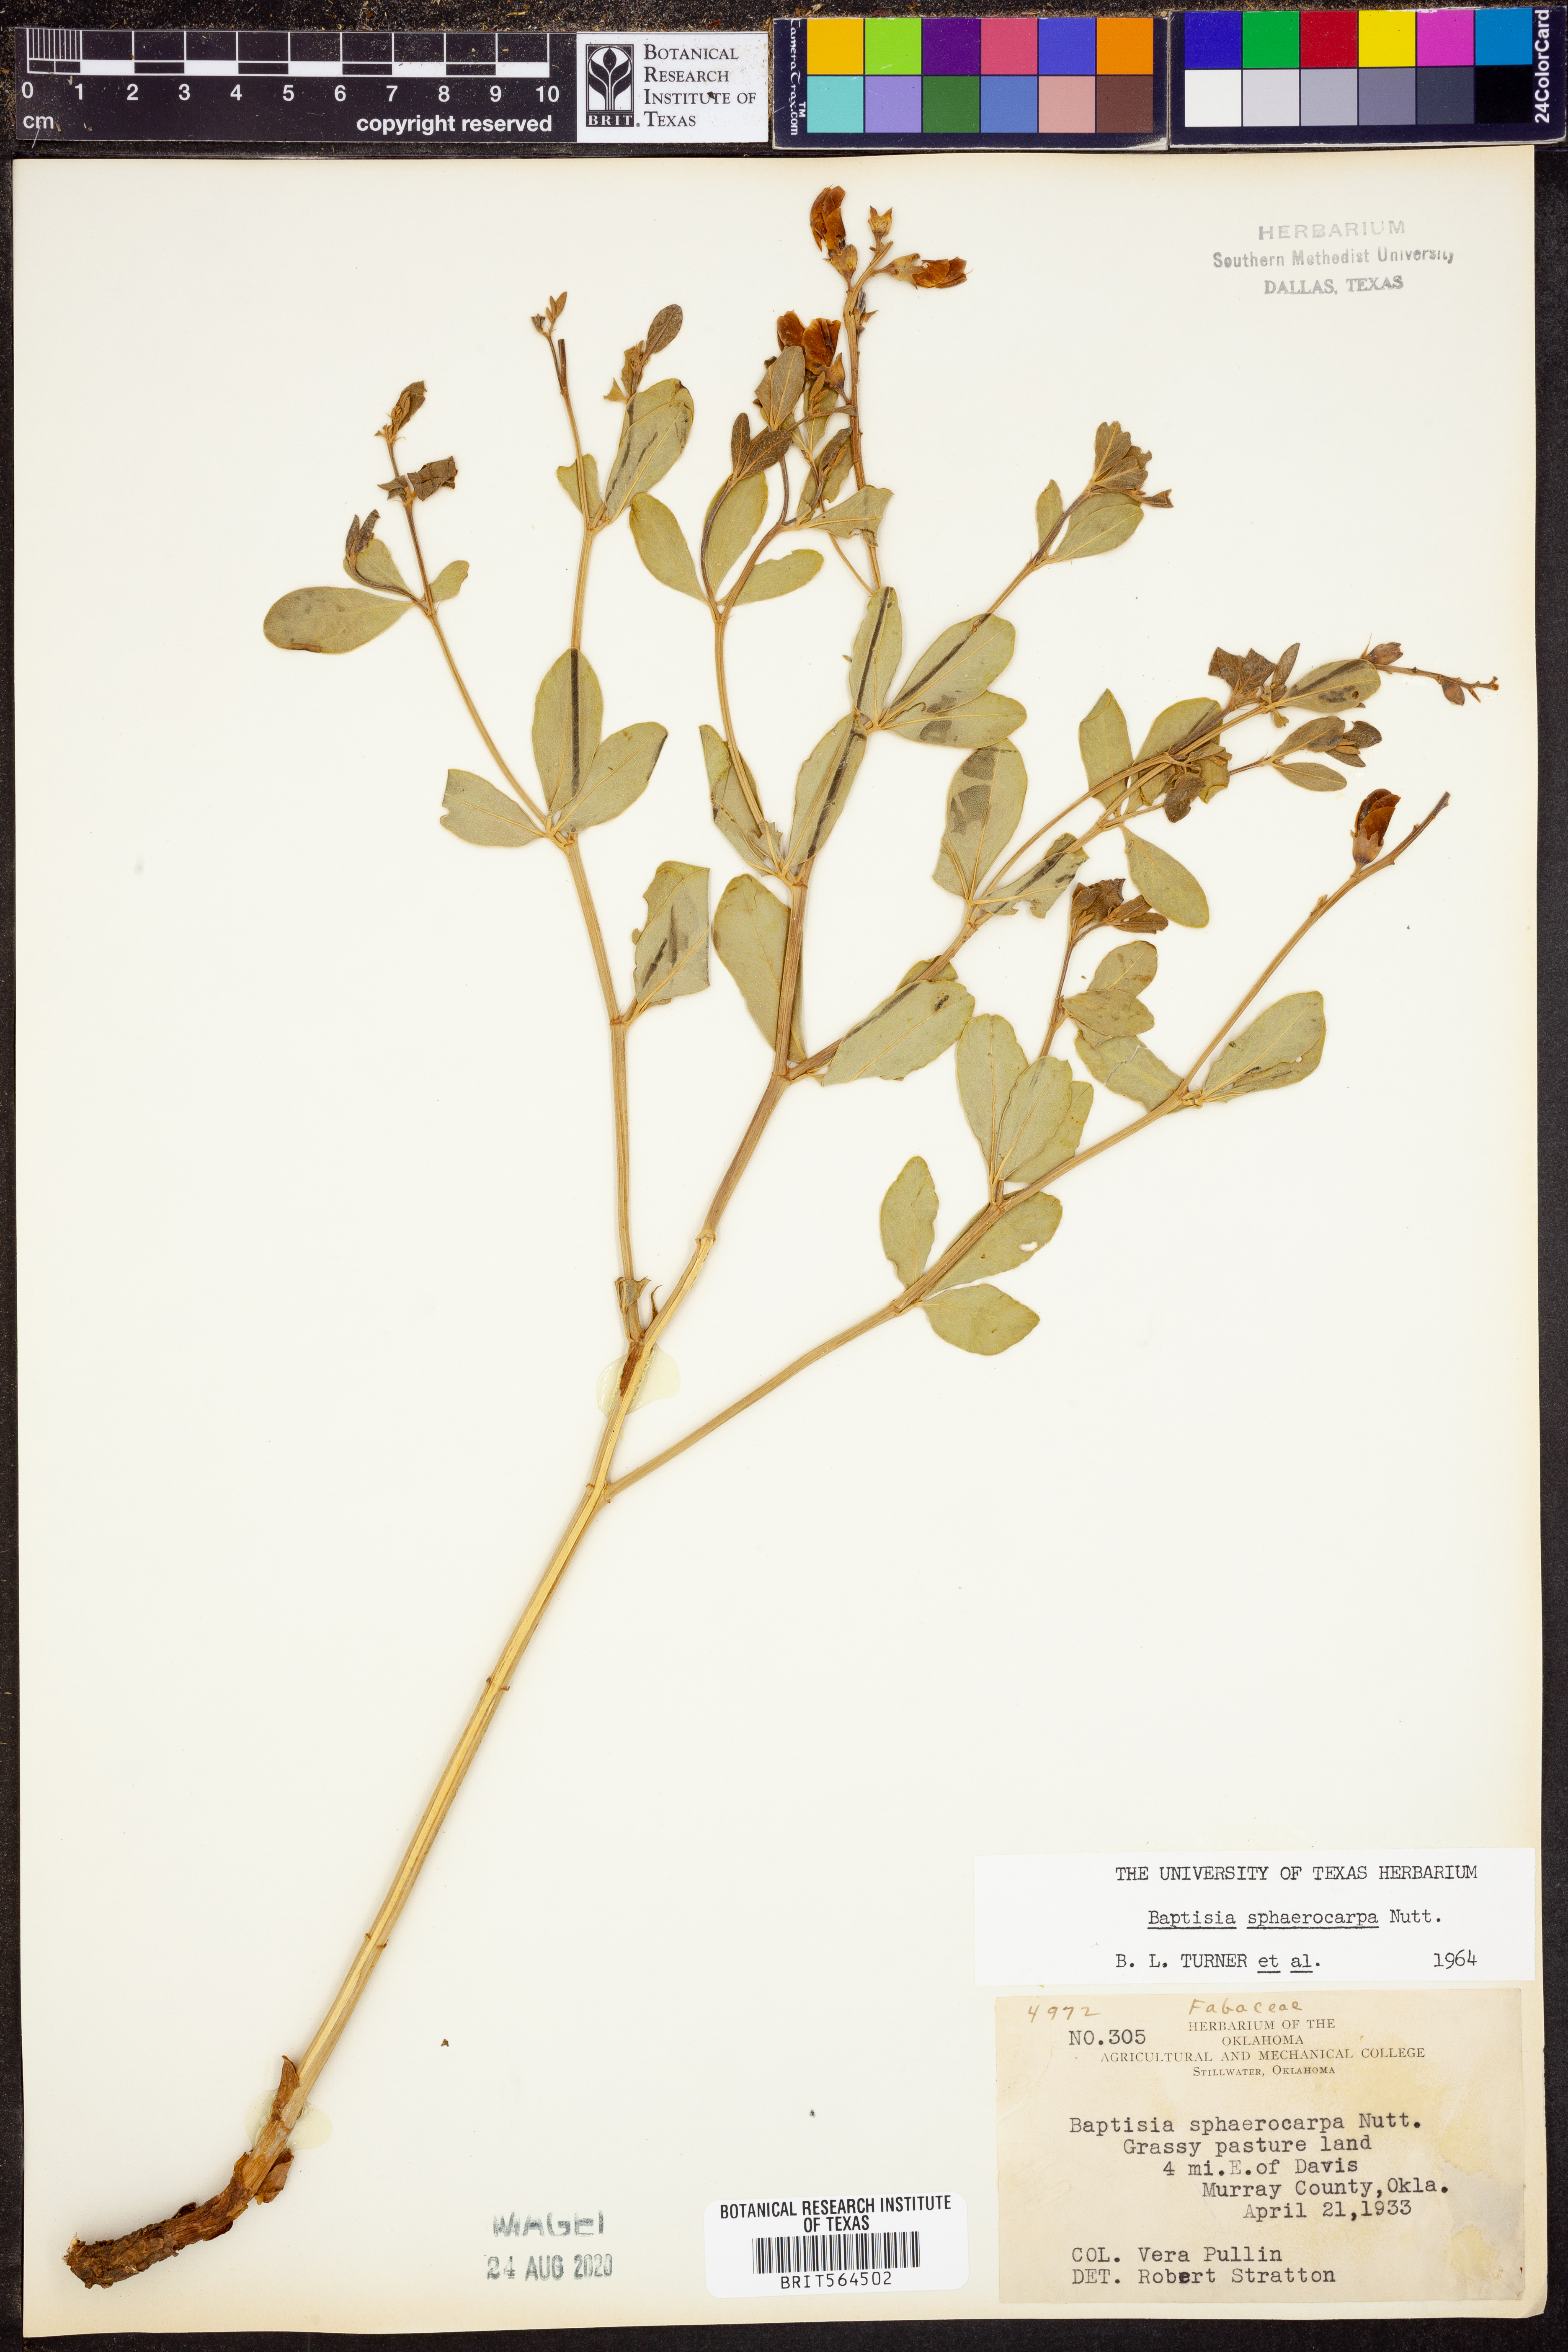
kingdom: Plantae
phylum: Tracheophyta
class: Magnoliopsida
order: Fabales
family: Fabaceae
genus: Baptisia
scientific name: Baptisia sphaerocarpa
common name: Round wild indigo
